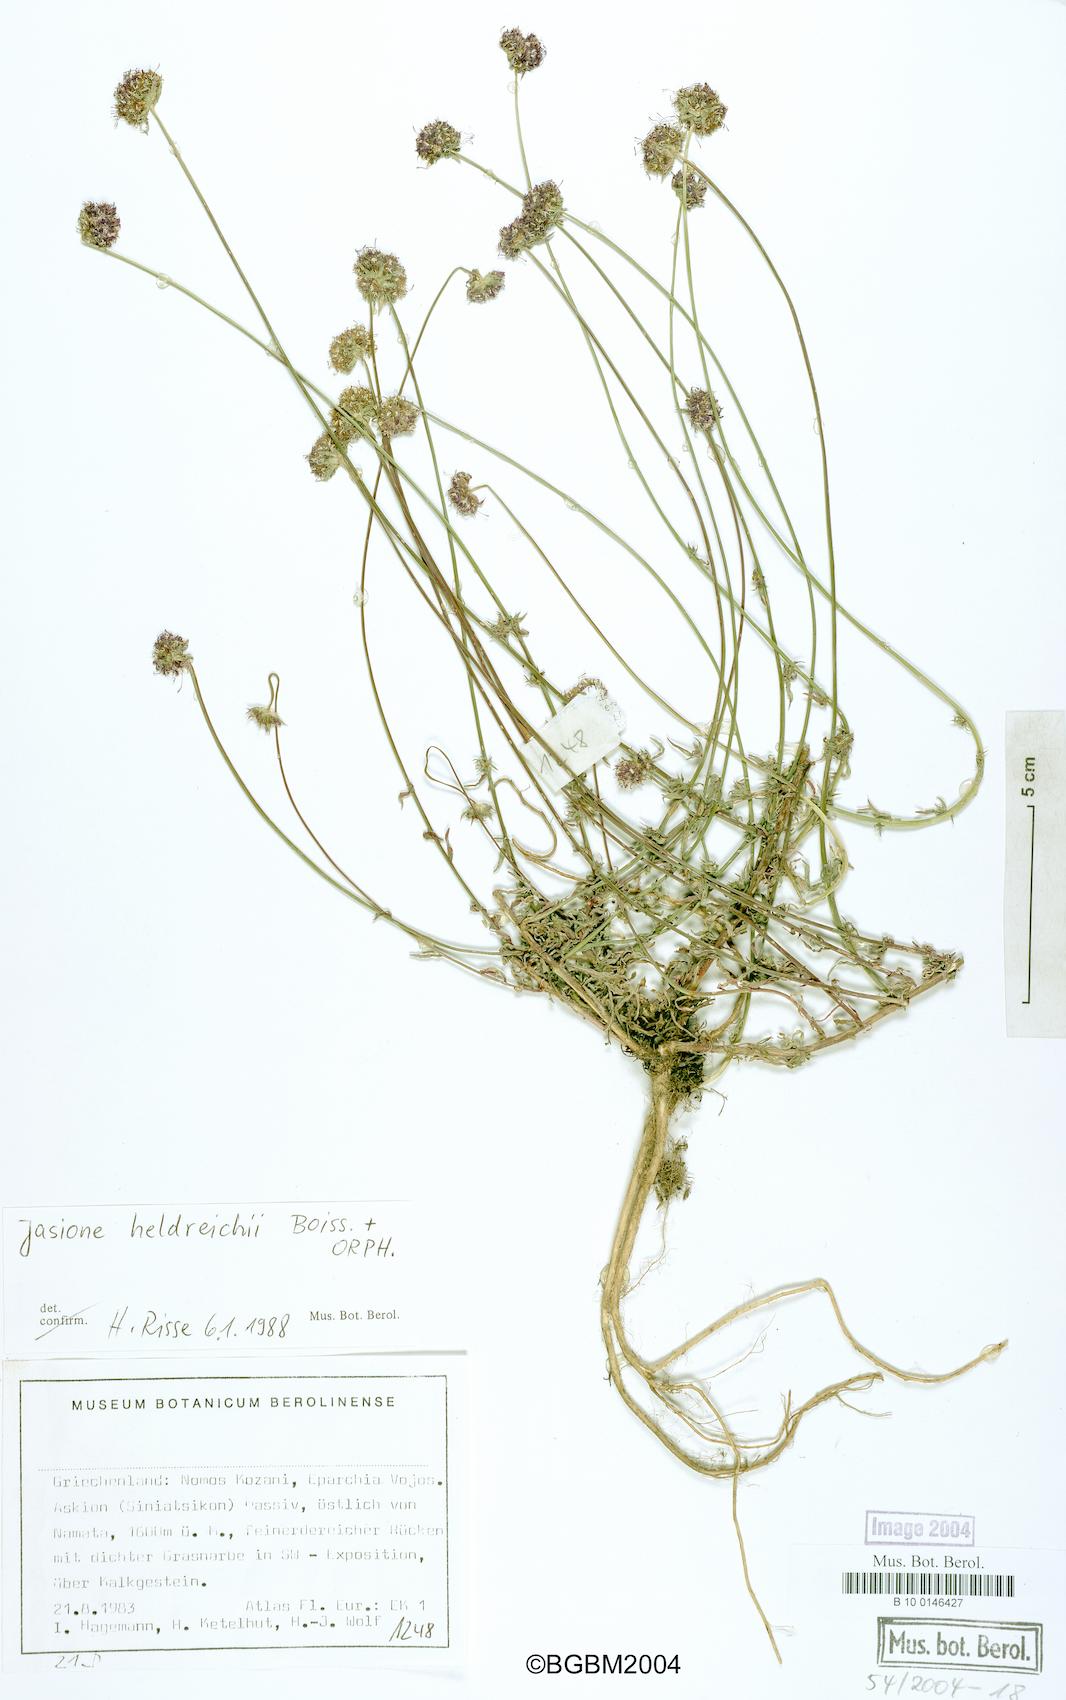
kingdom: Plantae
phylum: Tracheophyta
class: Magnoliopsida
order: Asterales
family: Campanulaceae
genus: Jasione
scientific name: Jasione heldreichii
